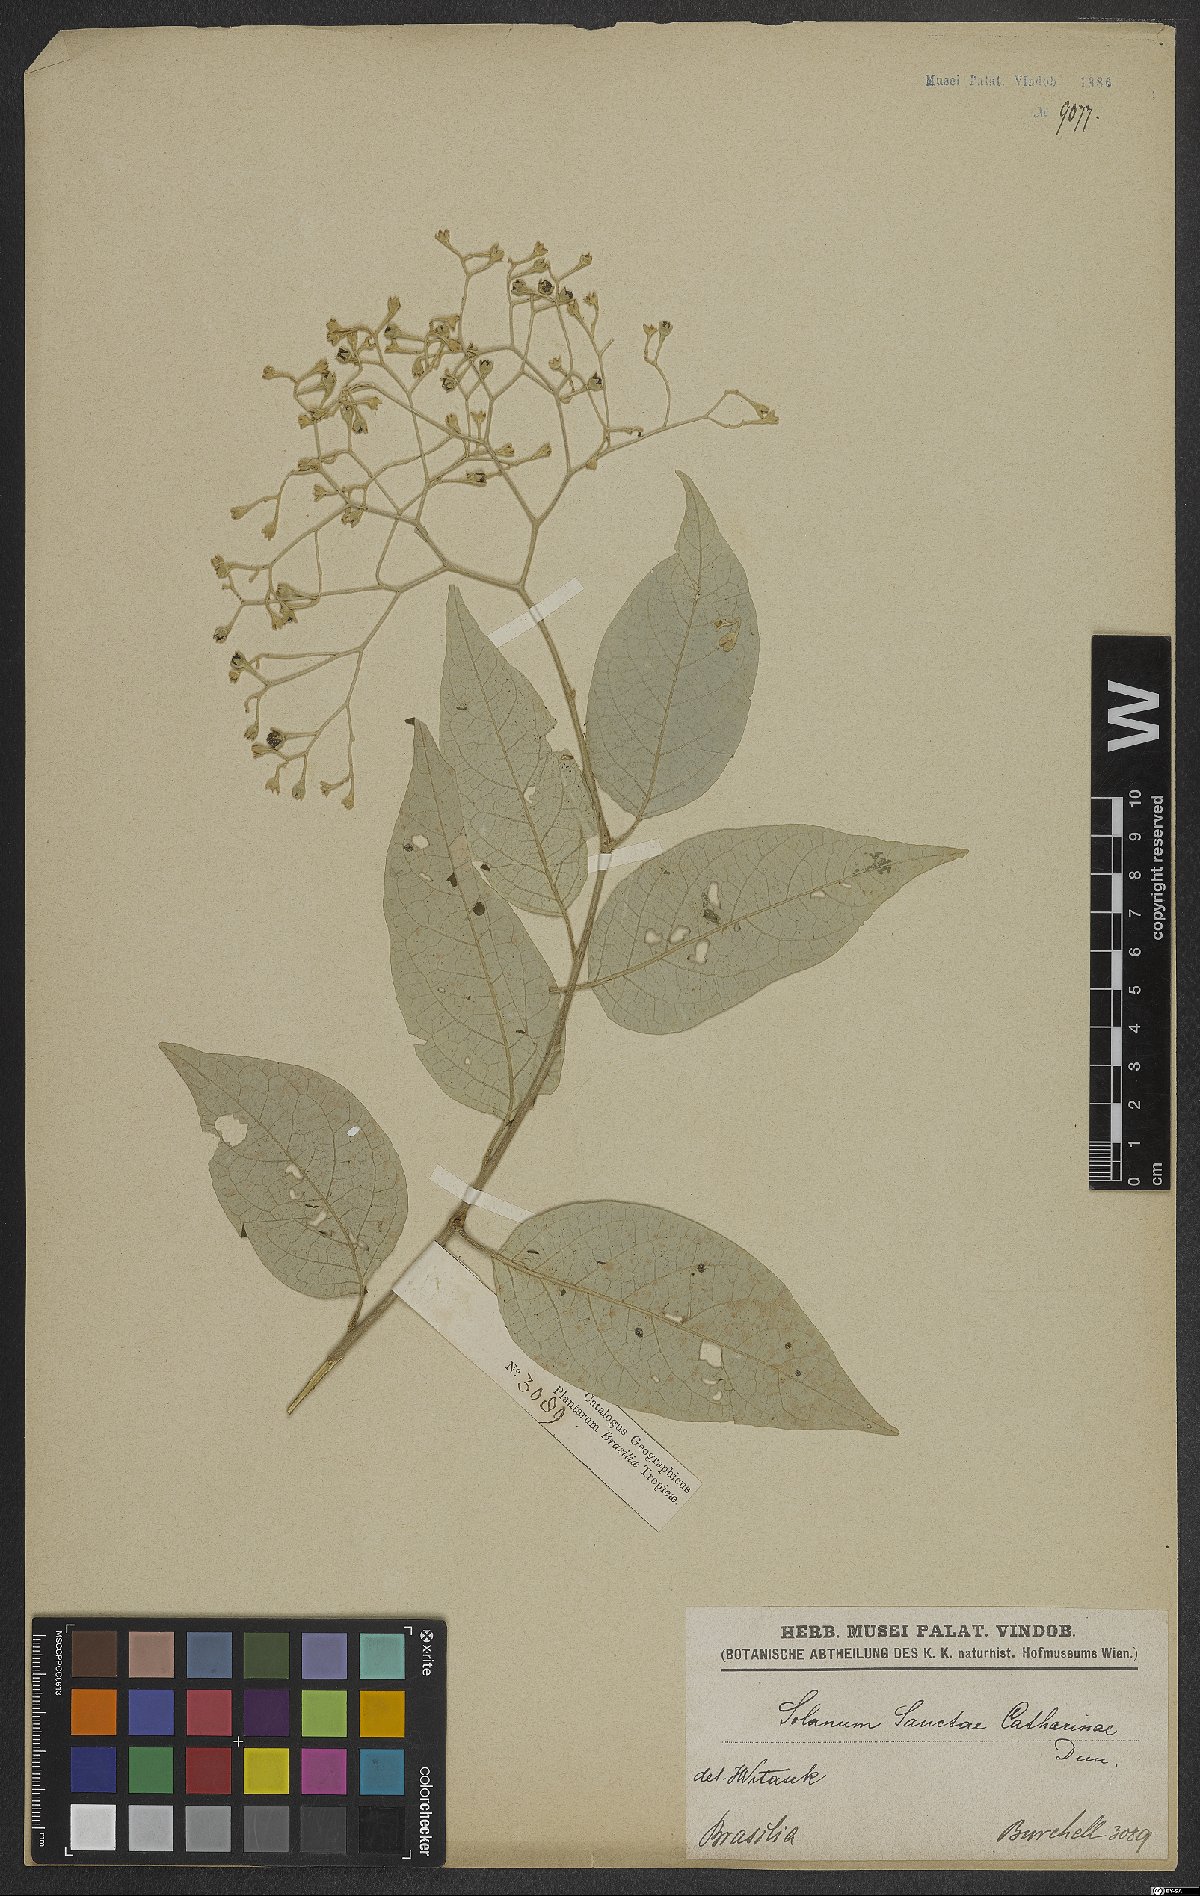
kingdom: Plantae
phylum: Tracheophyta
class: Magnoliopsida
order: Solanales
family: Solanaceae
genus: Solanum
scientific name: Solanum sanctae-catharinae
